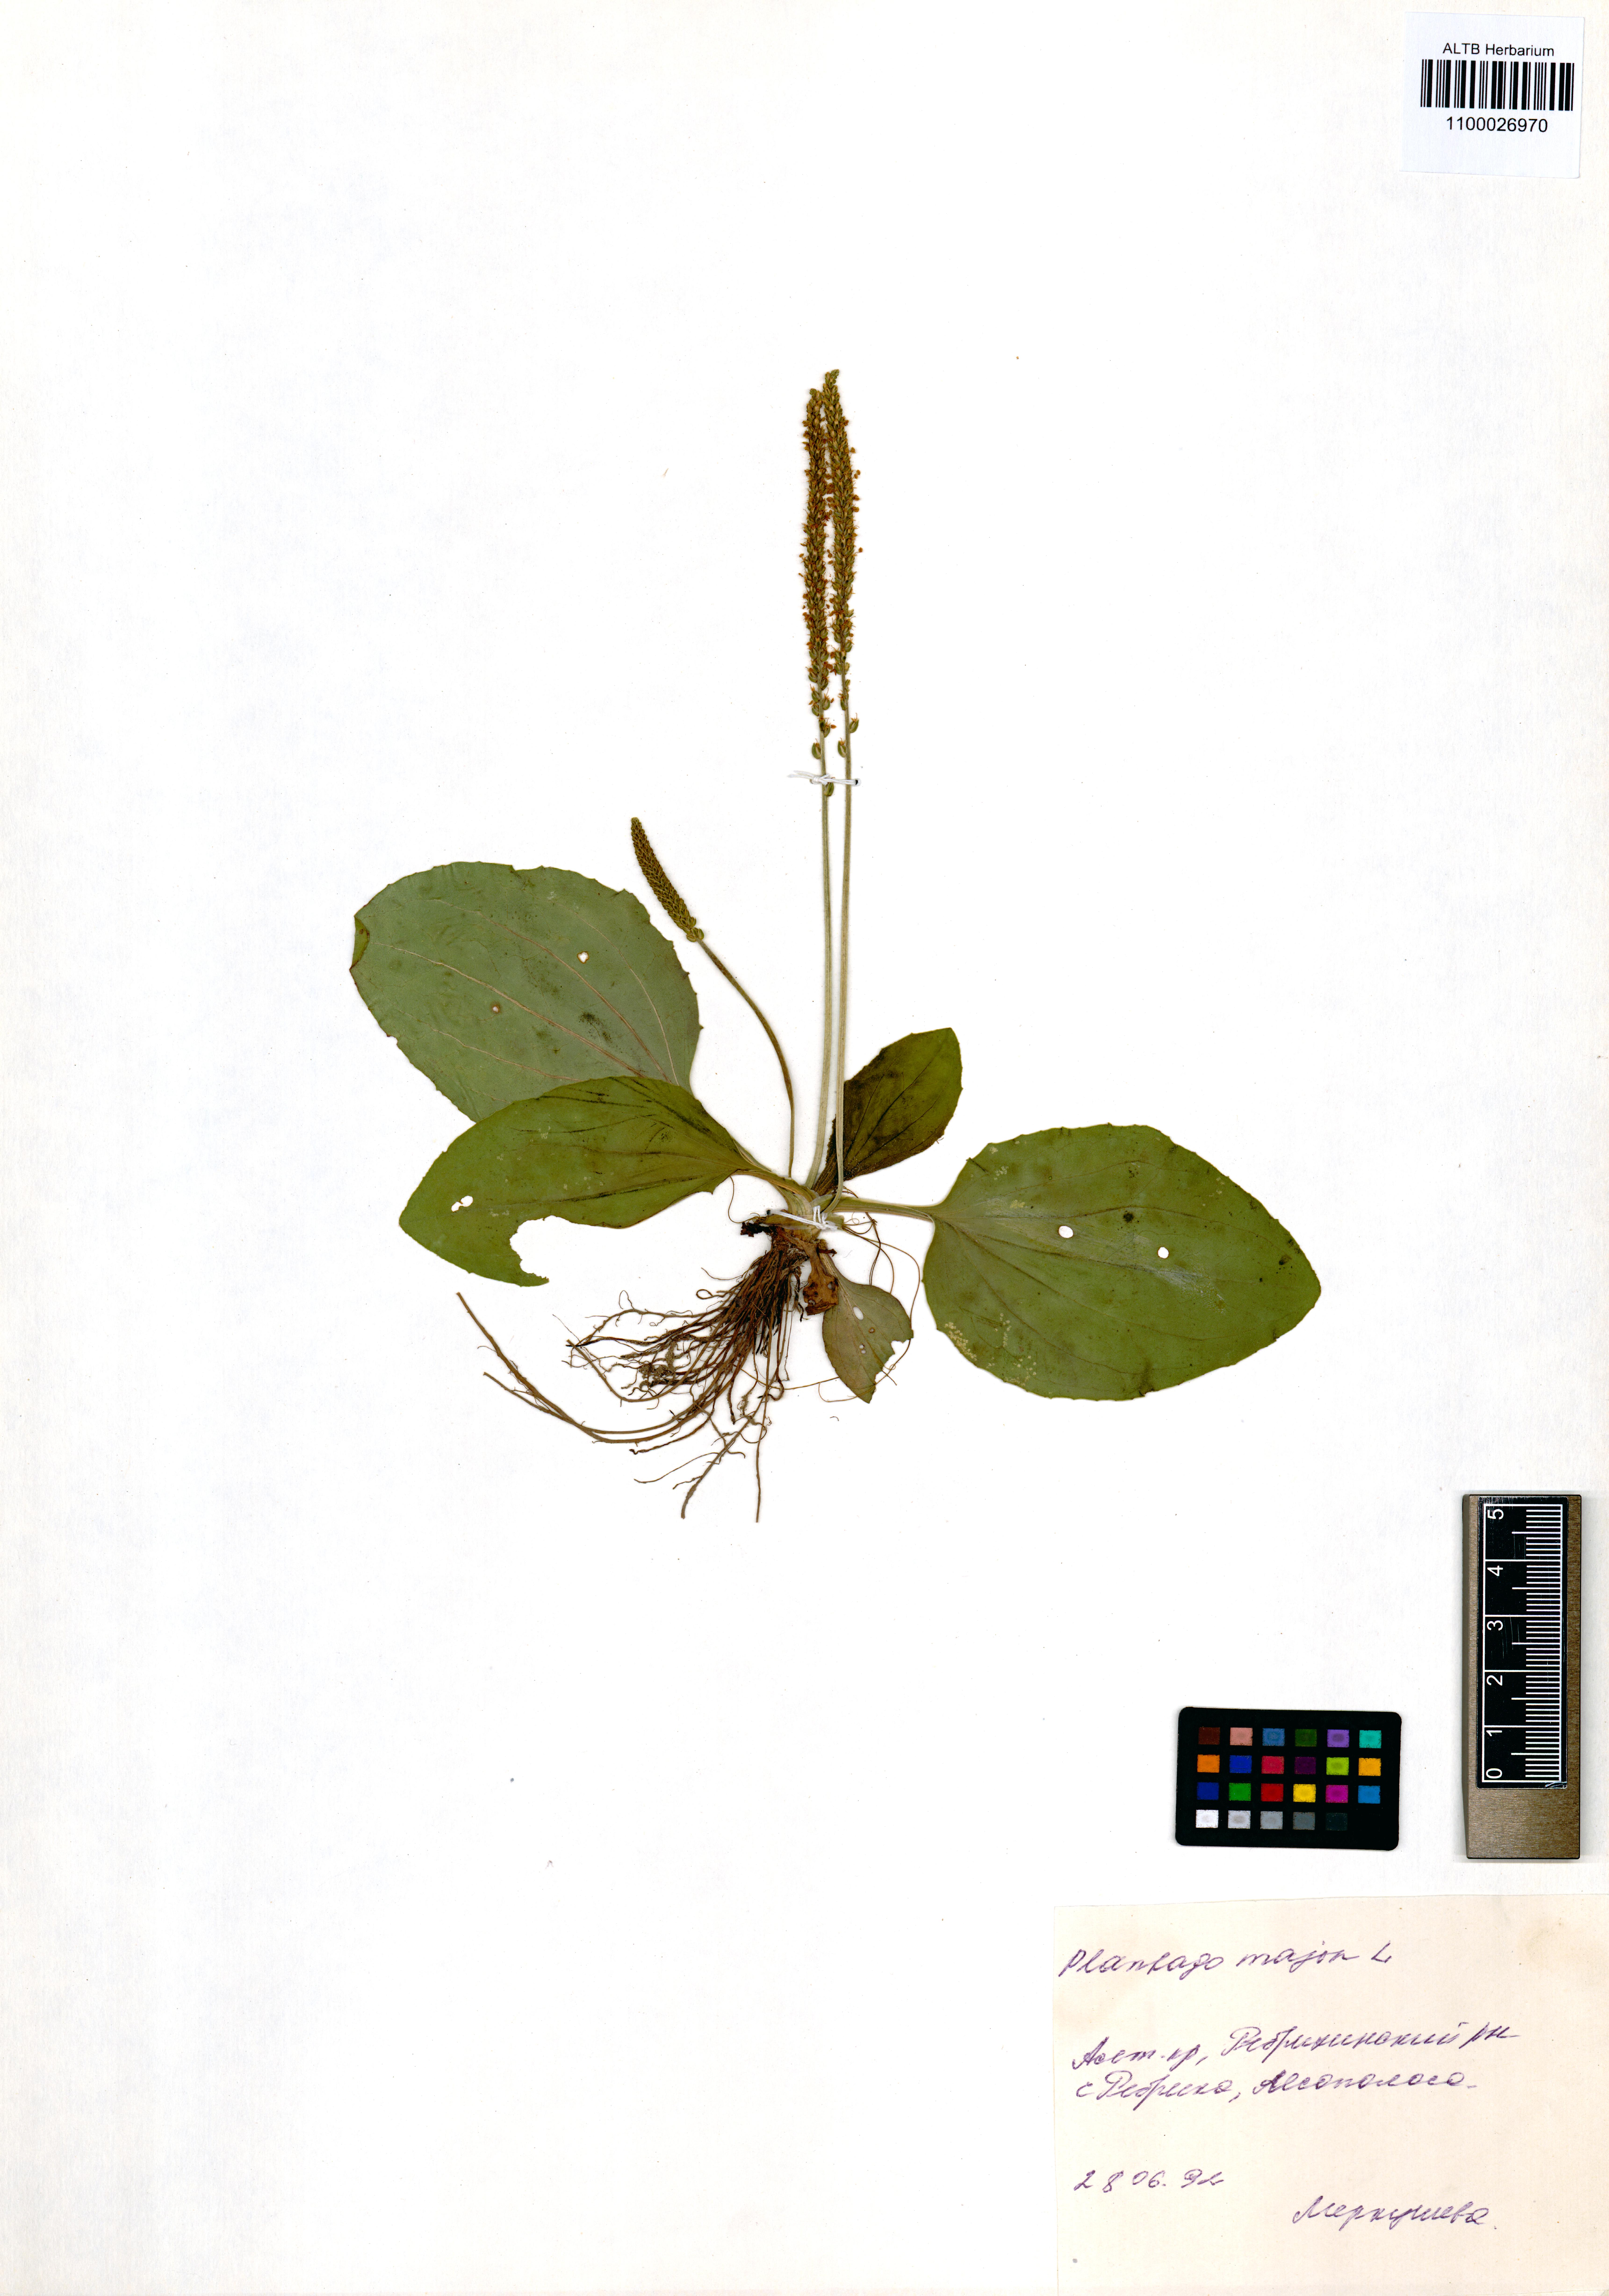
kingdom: Plantae
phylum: Tracheophyta
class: Magnoliopsida
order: Lamiales
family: Plantaginaceae
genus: Plantago
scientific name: Plantago major
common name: Common plantain
